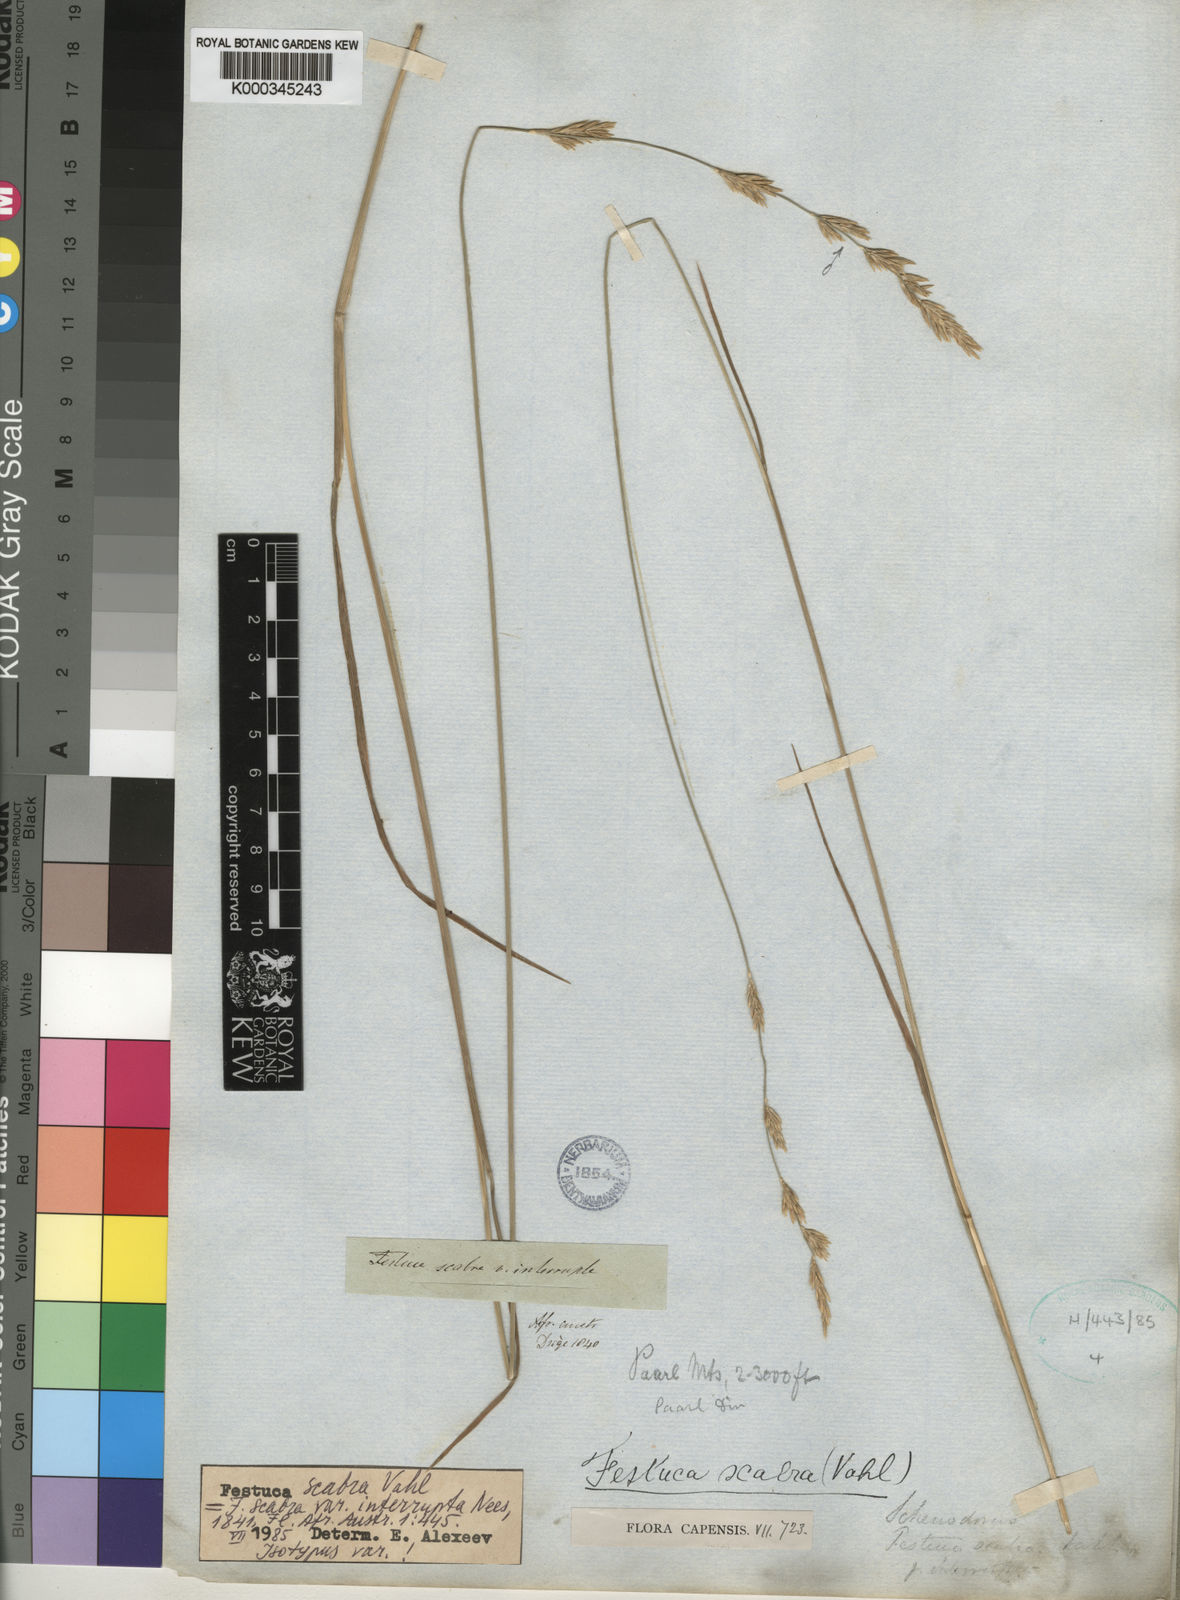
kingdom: Plantae
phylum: Tracheophyta
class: Liliopsida
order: Poales
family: Poaceae
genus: Festuca
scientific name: Festuca scabra
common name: Munnik fescue
